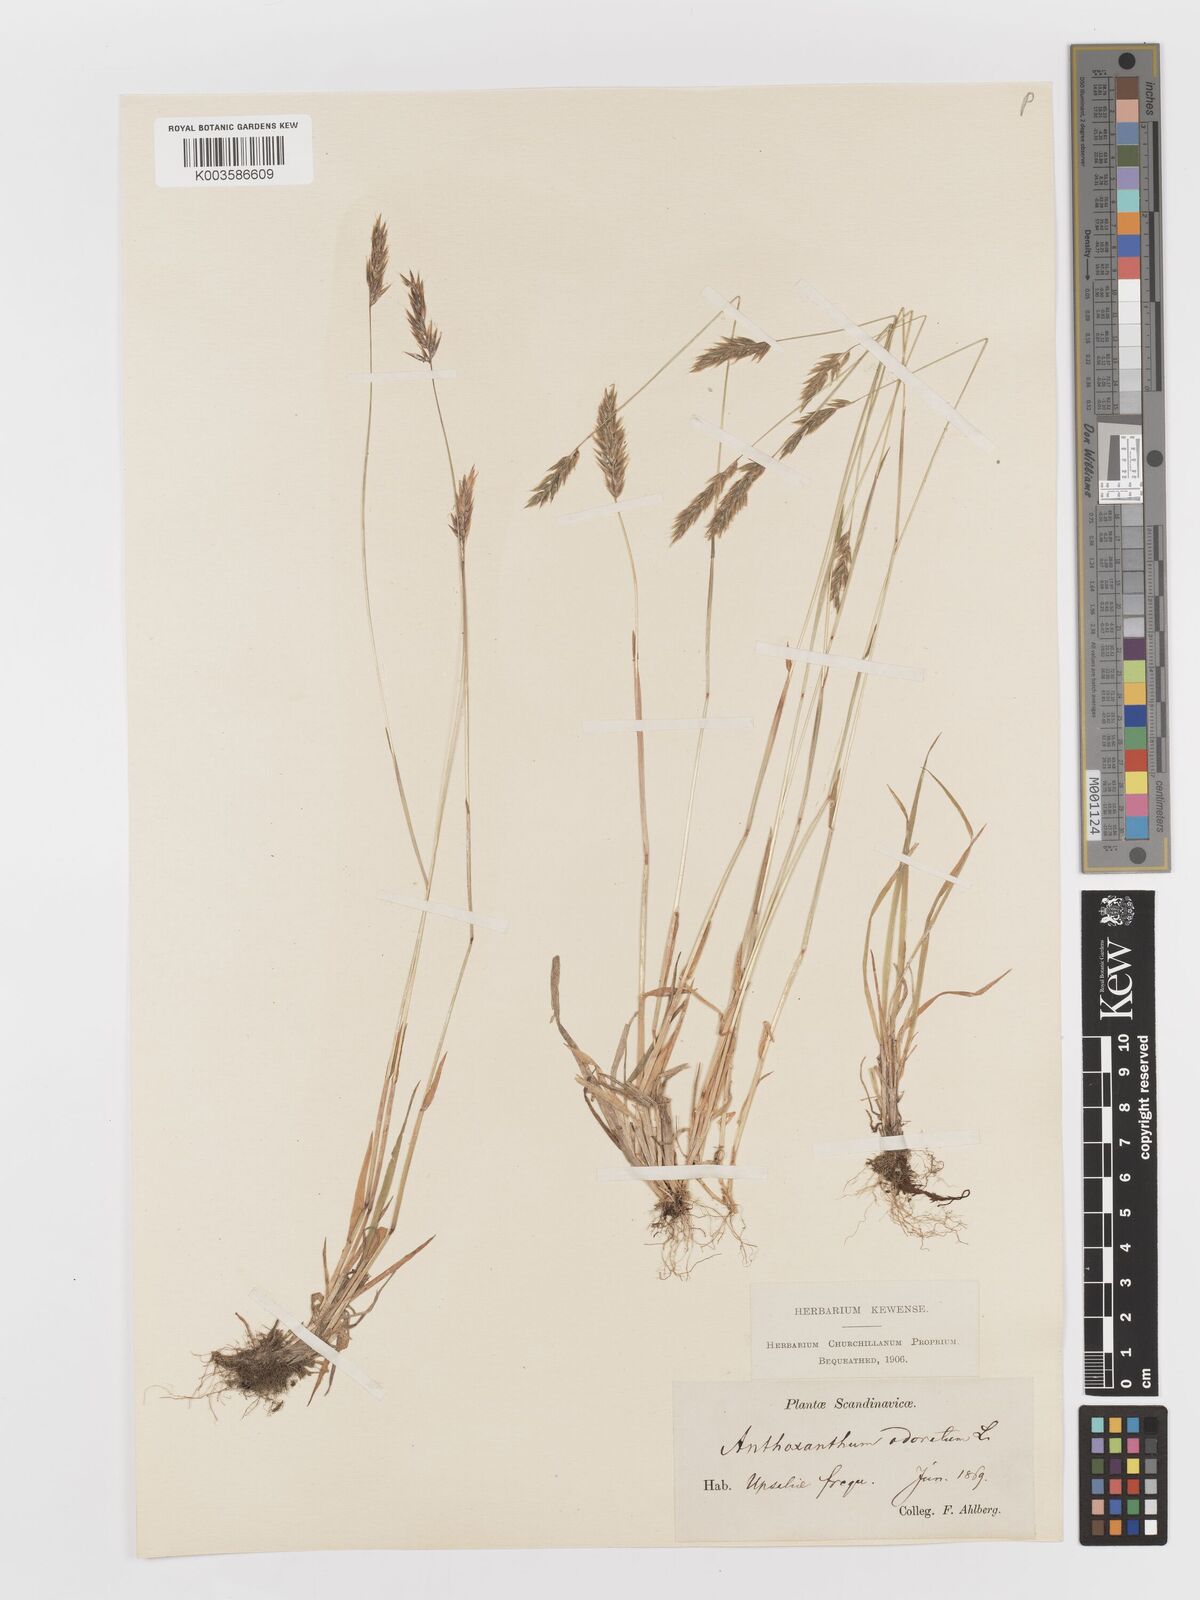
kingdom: Plantae
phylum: Tracheophyta
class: Liliopsida
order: Poales
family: Poaceae
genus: Anthoxanthum
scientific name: Anthoxanthum odoratum
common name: Sweet vernalgrass
